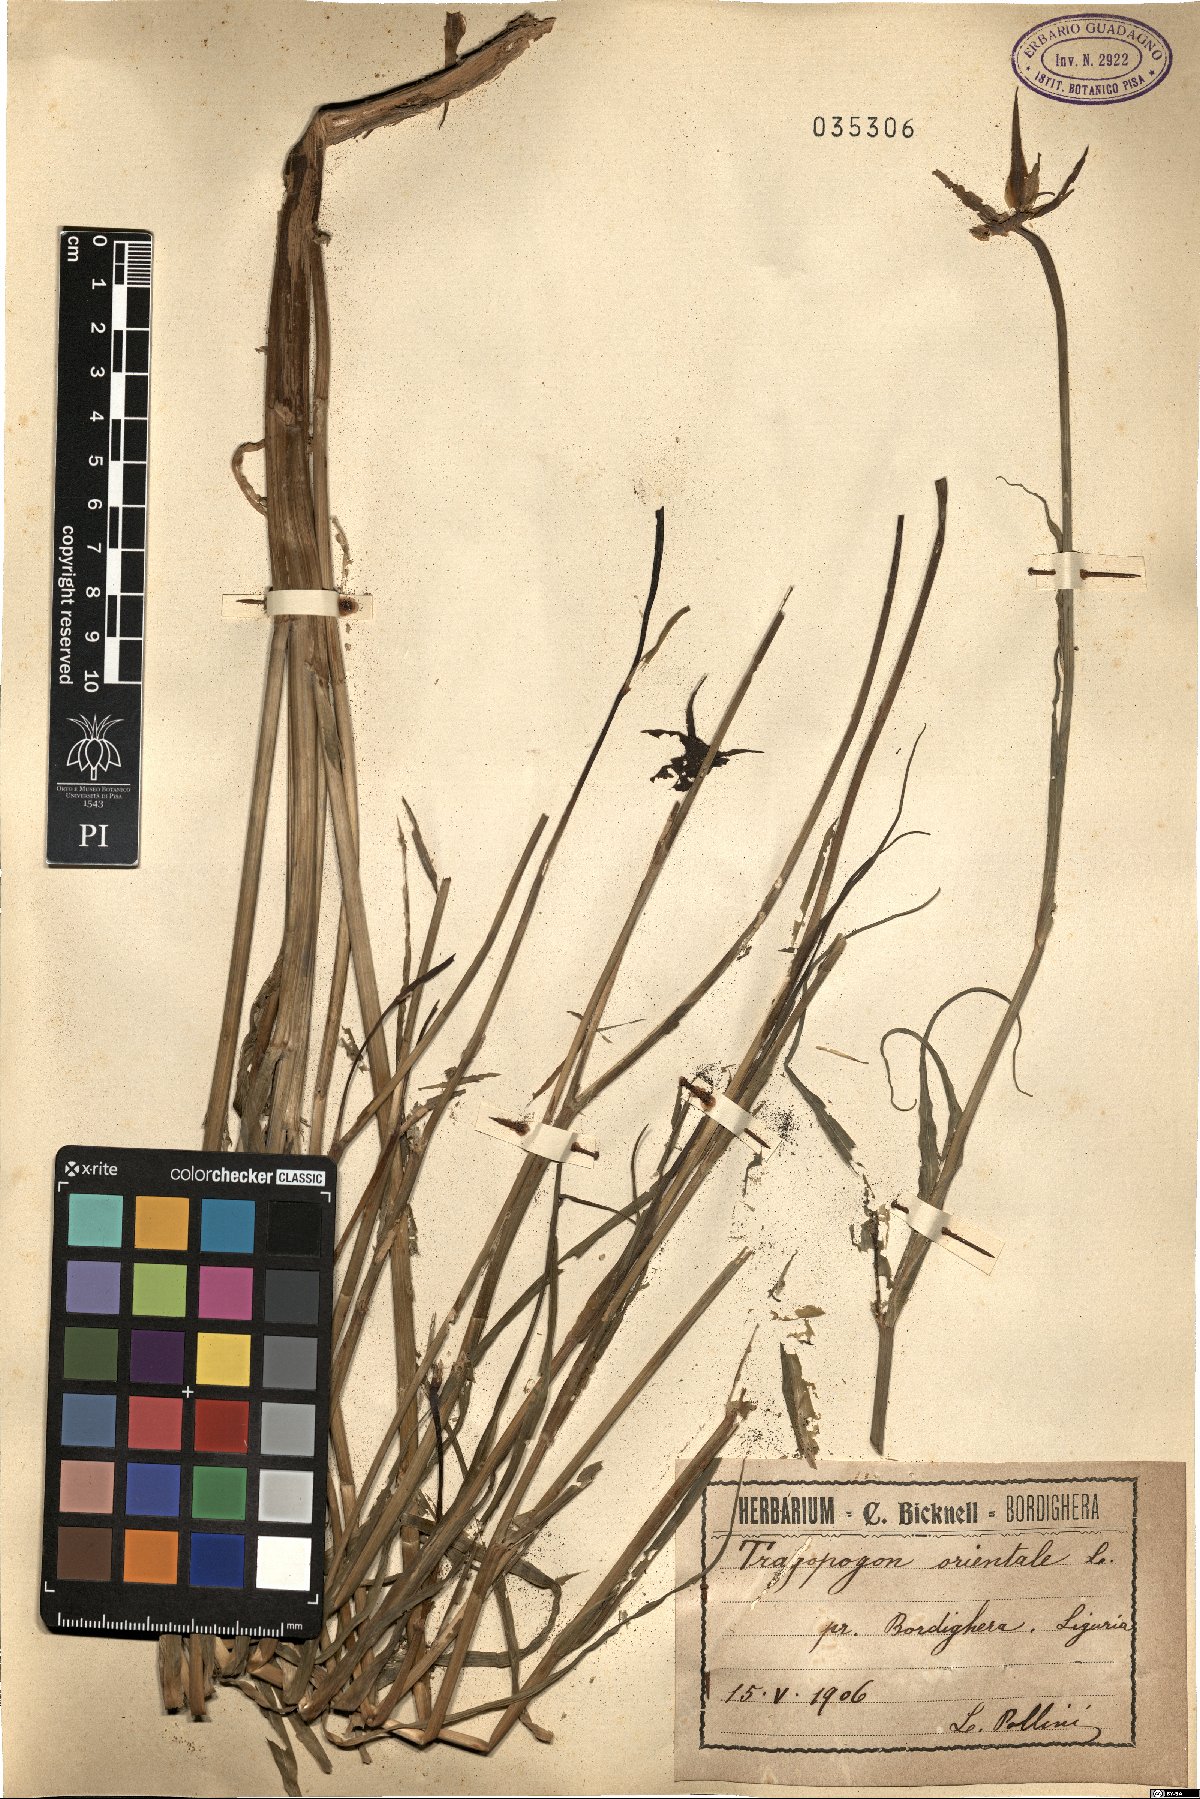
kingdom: Plantae
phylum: Tracheophyta
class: Magnoliopsida
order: Asterales
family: Asteraceae
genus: Tragopogon
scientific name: Tragopogon orientalis
